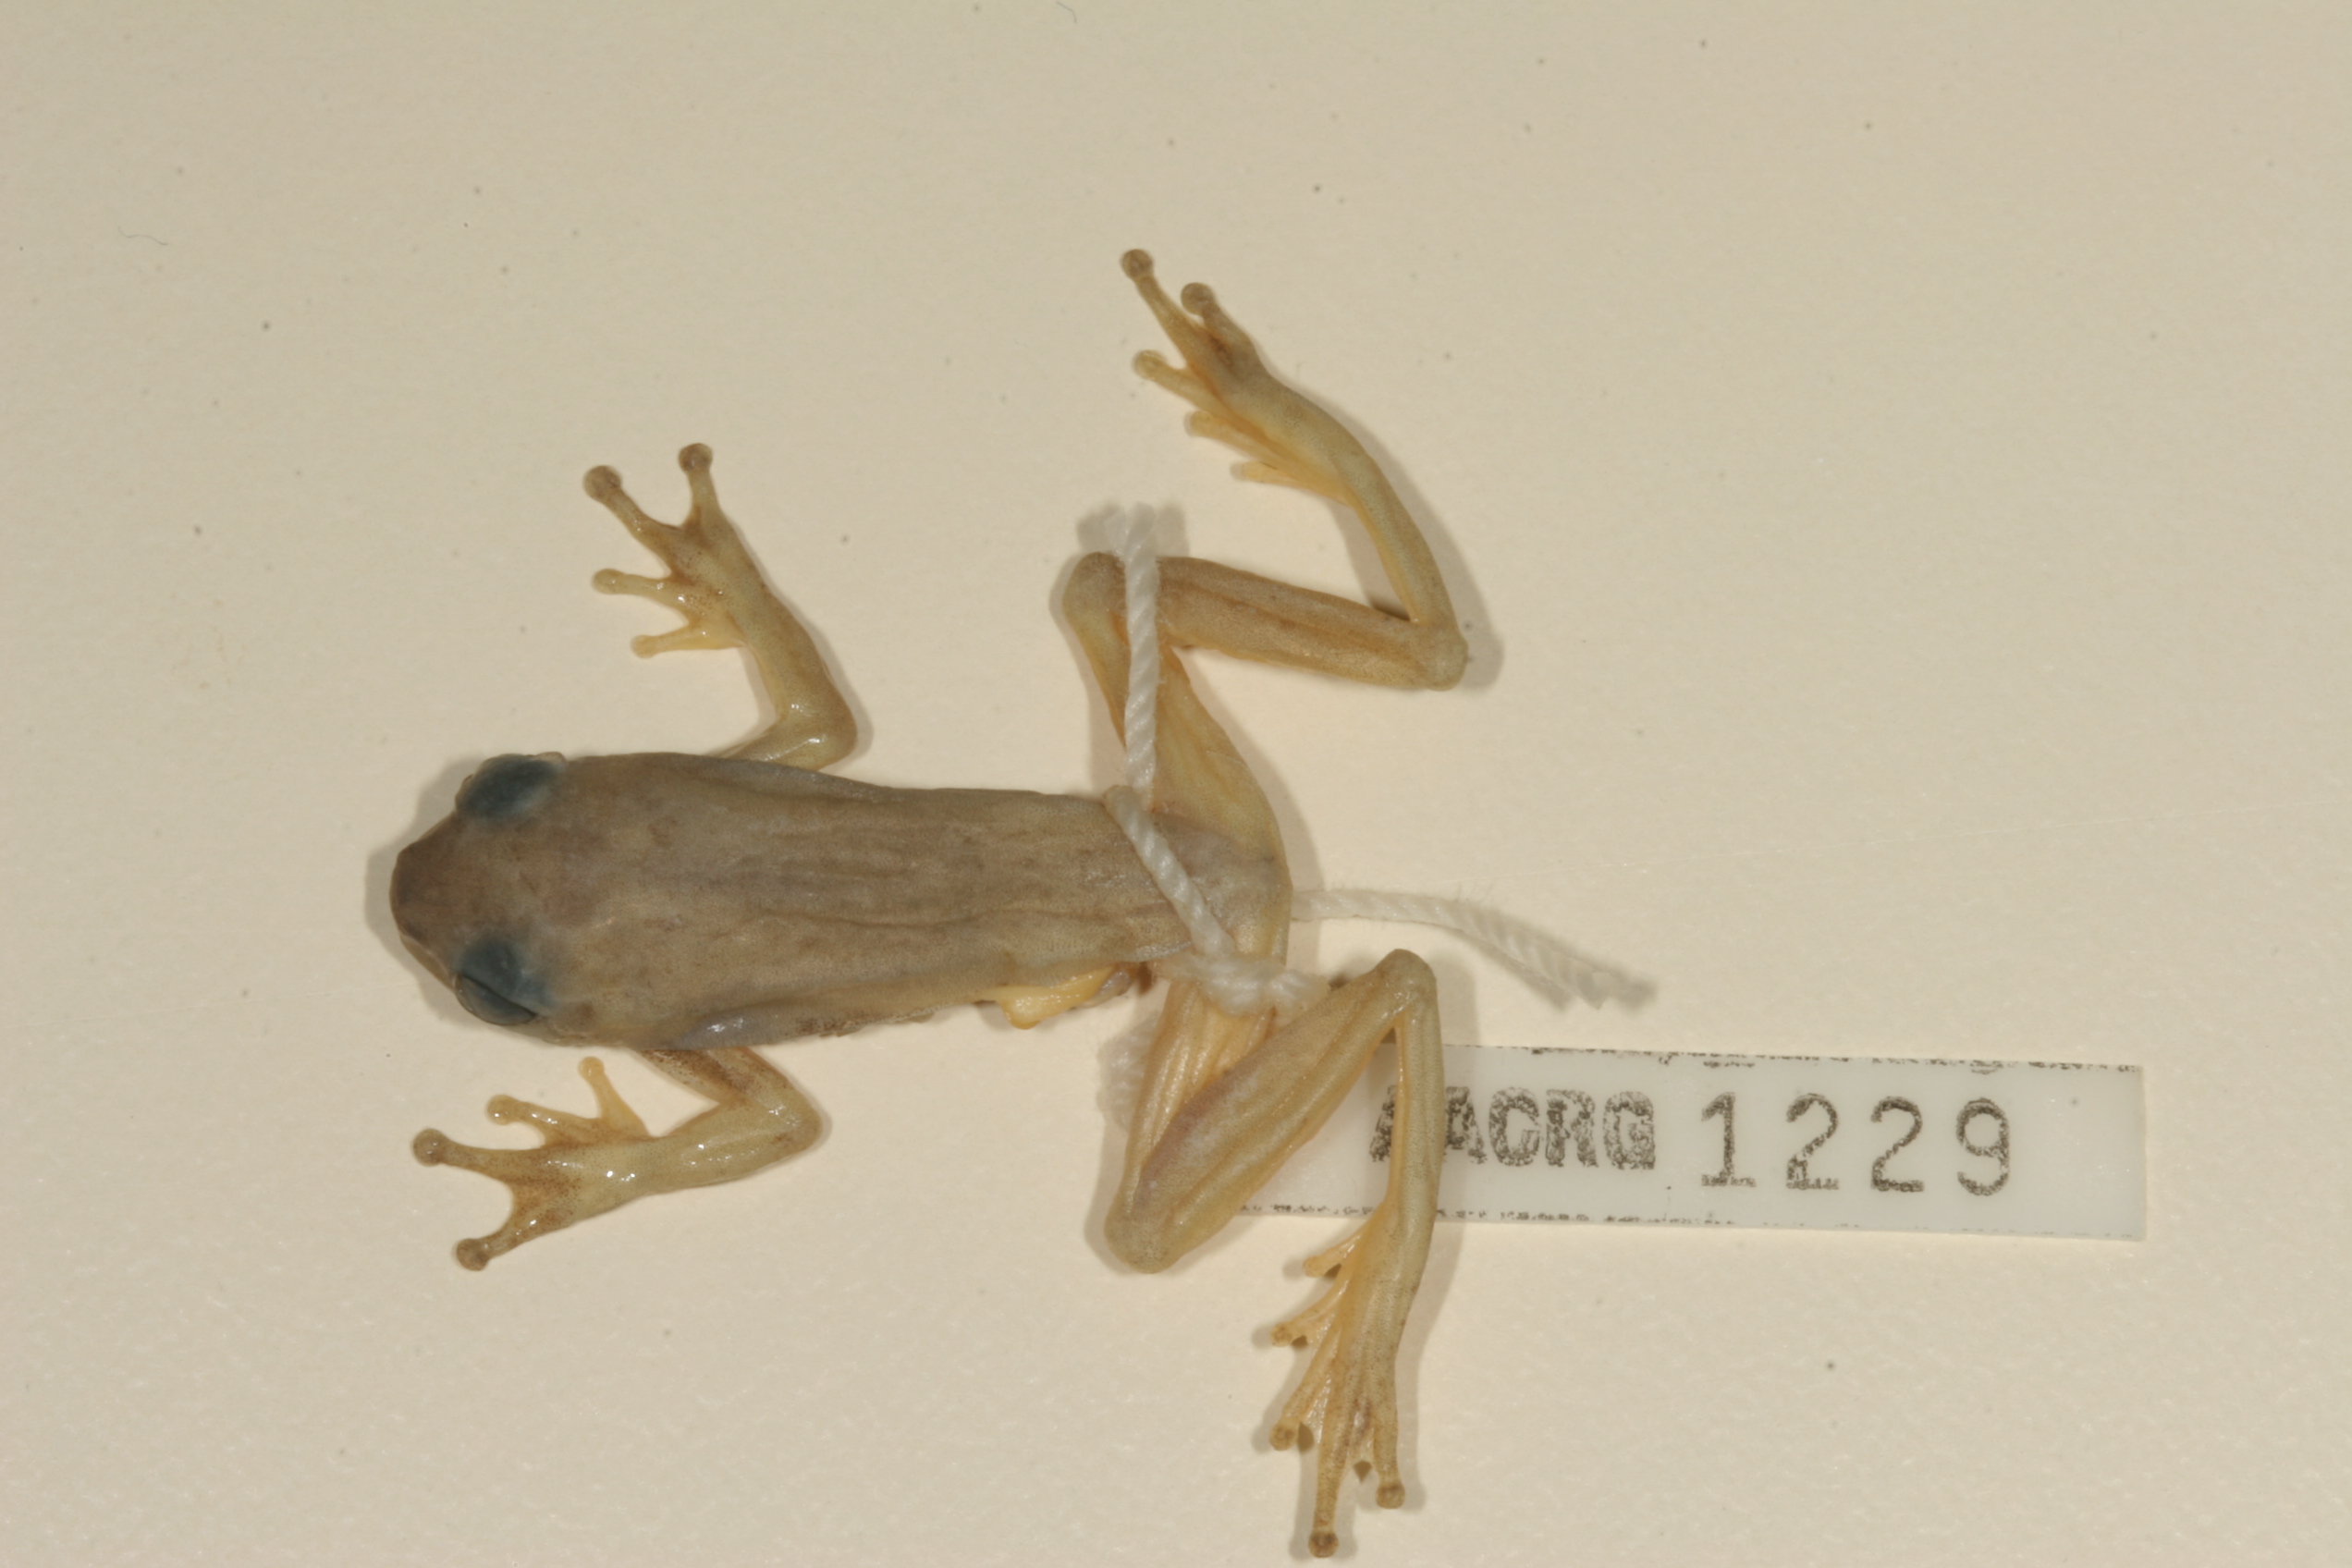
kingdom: Animalia
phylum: Chordata
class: Amphibia
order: Anura
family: Hyperoliidae
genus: Hyperolius
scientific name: Hyperolius marmoratus
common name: Painted reed frog
